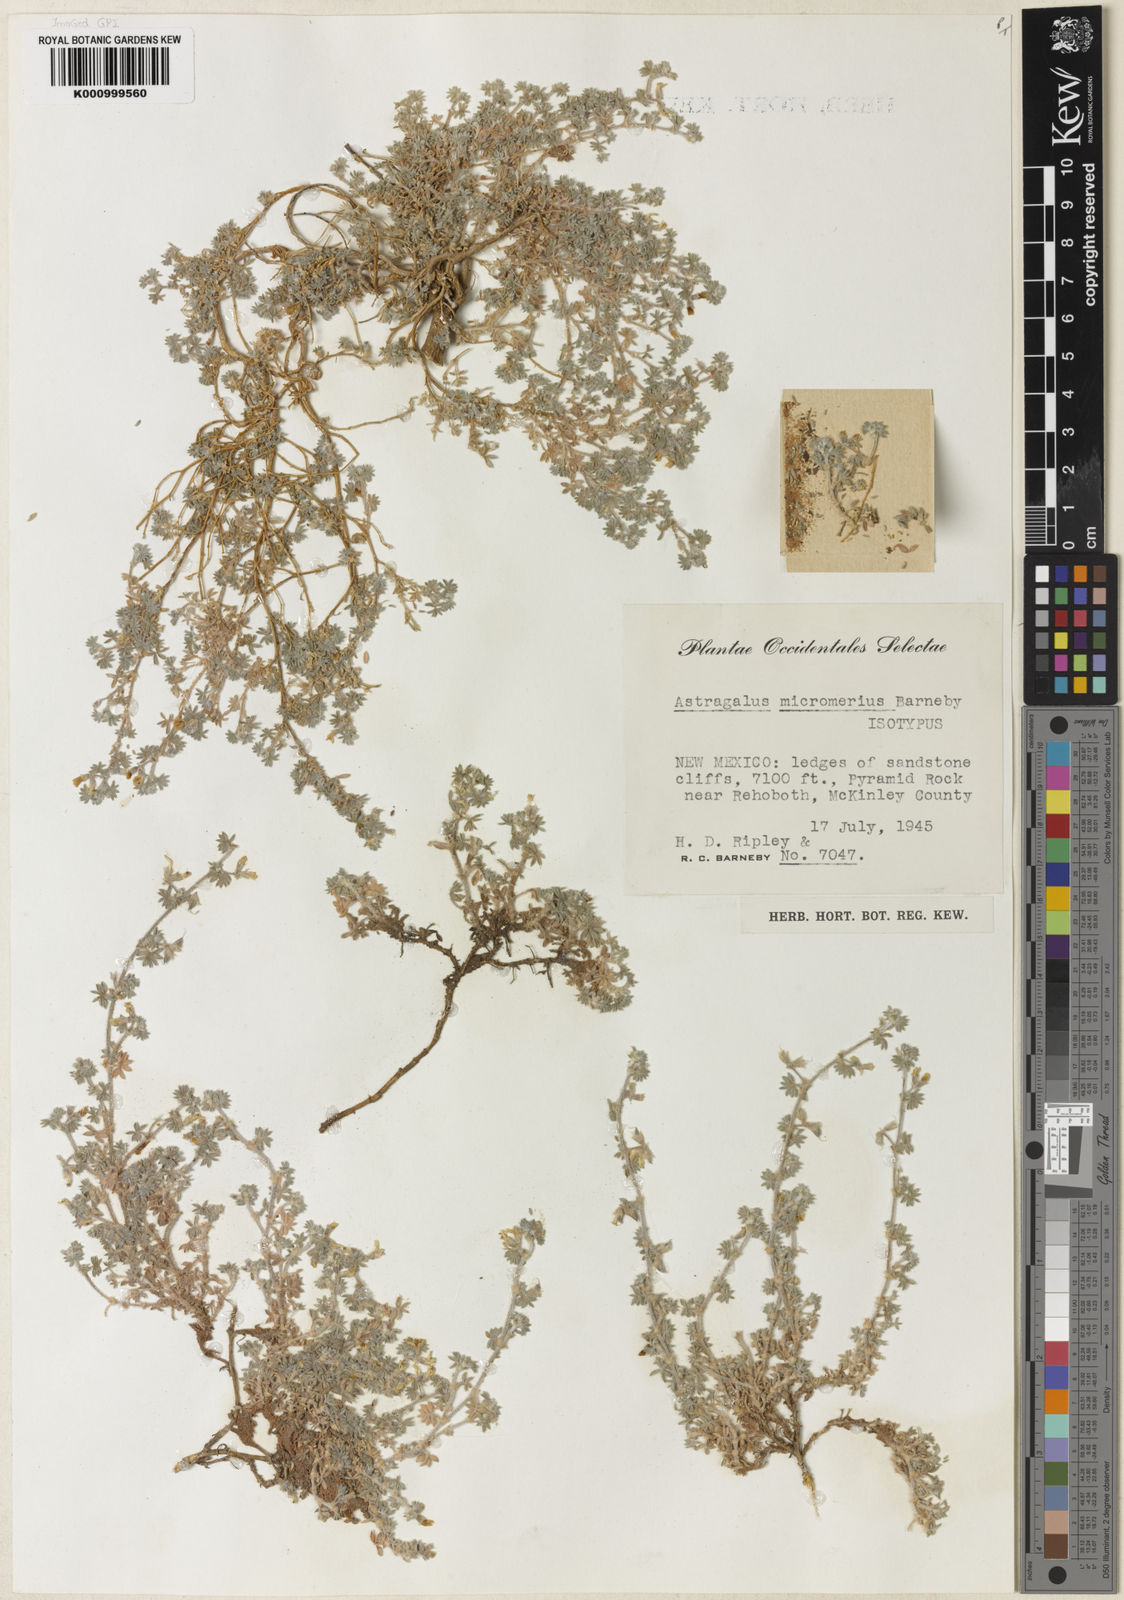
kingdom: Plantae
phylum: Tracheophyta
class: Magnoliopsida
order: Fabales
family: Fabaceae
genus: Astragalus
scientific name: Astragalus micromerius
